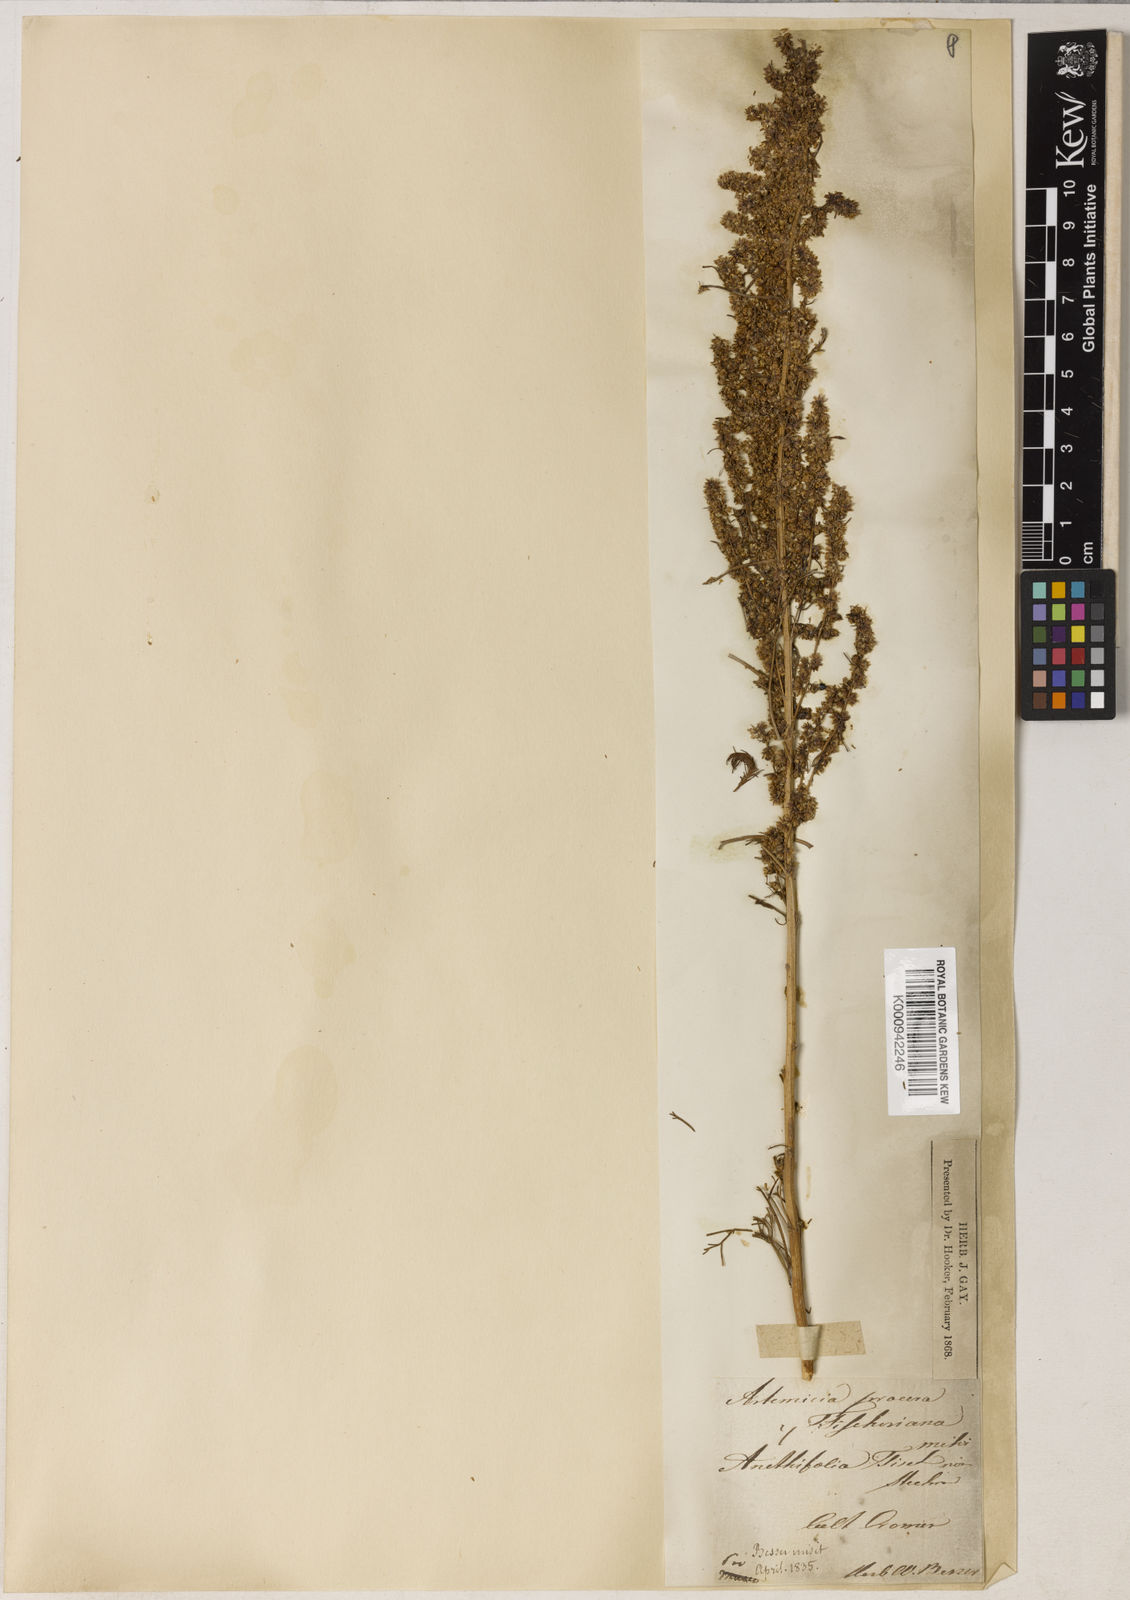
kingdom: Plantae
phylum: Tracheophyta
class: Magnoliopsida
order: Asterales
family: Asteraceae
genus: Artemisia
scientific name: Artemisia
